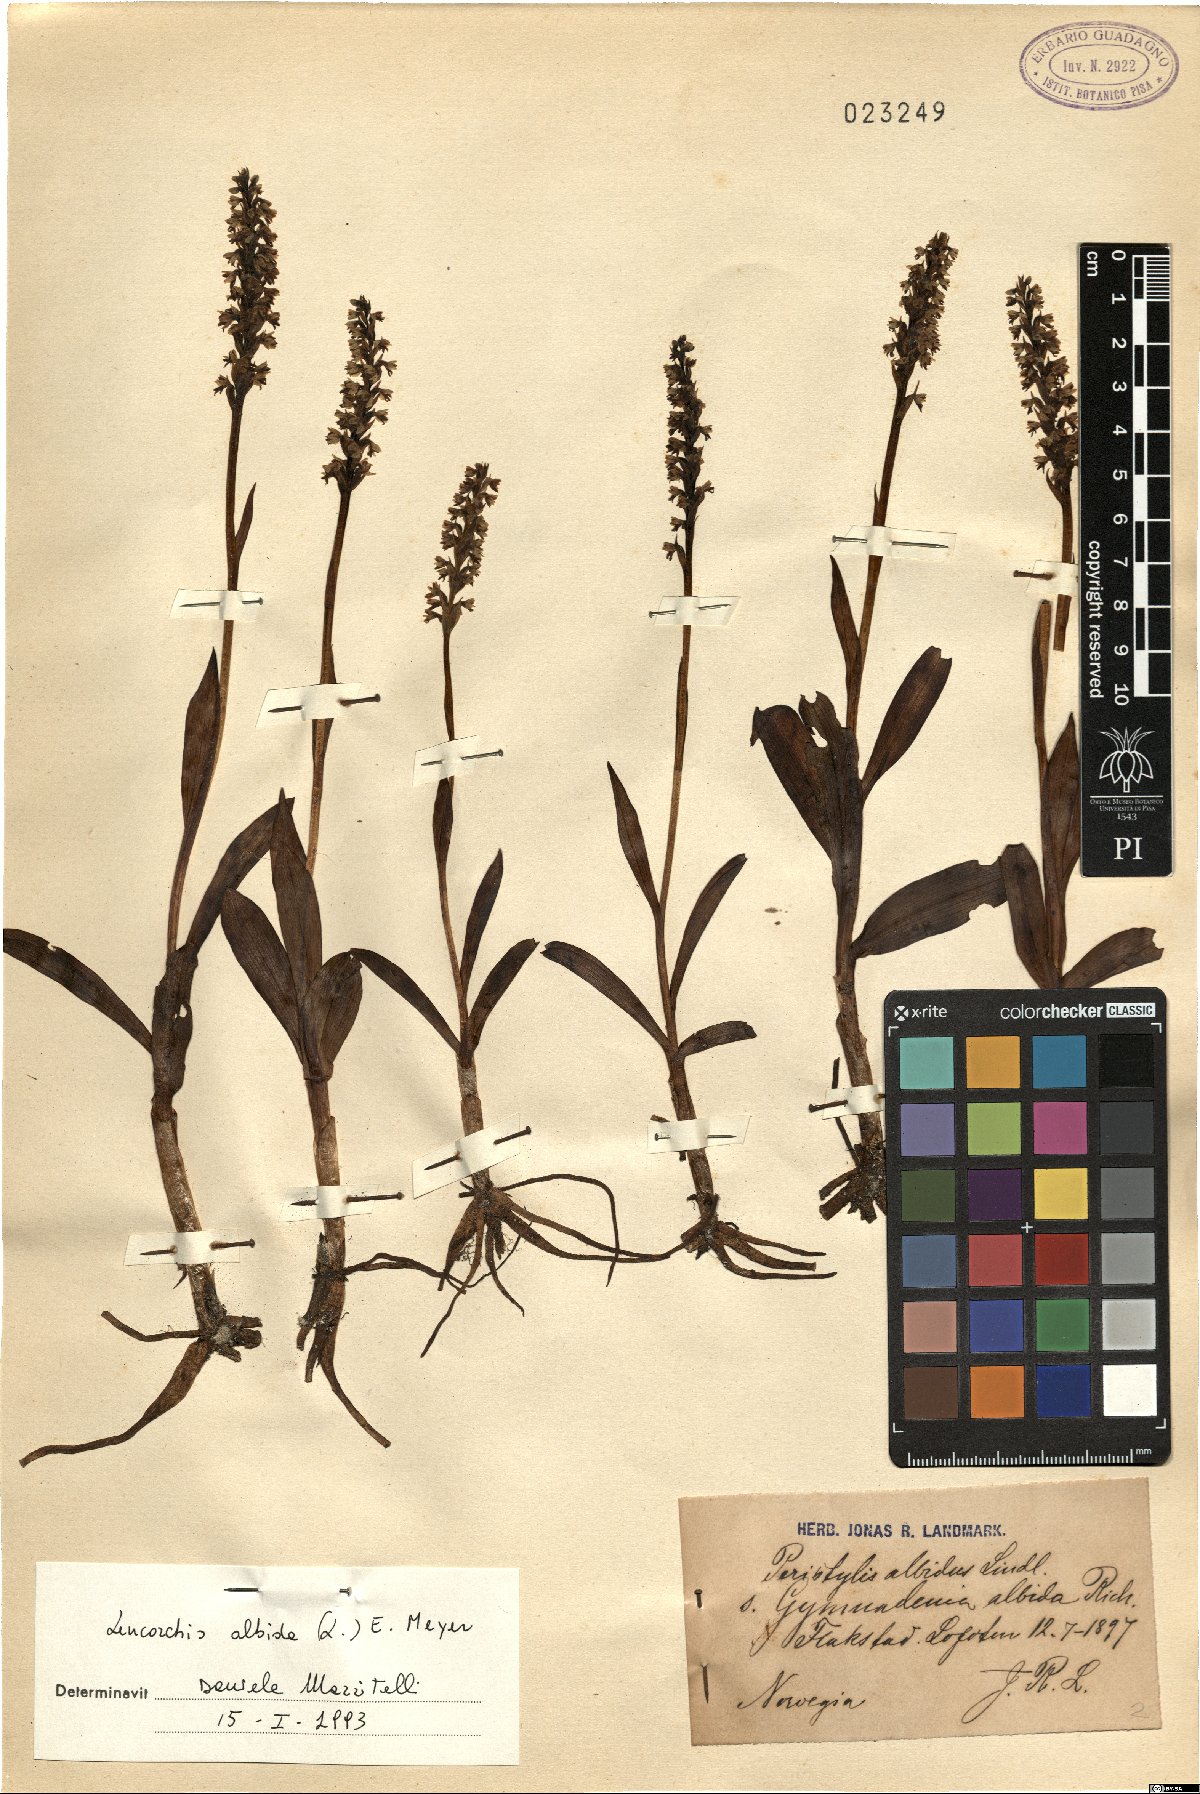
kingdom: Plantae
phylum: Tracheophyta
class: Liliopsida
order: Asparagales
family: Orchidaceae
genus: Pseudorchis
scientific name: Pseudorchis albida
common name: Small-white orchid
